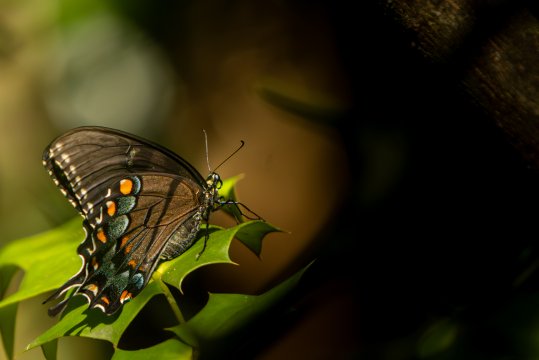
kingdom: Animalia
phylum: Arthropoda
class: Insecta
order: Lepidoptera
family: Papilionidae
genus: Pterourus
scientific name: Pterourus glaucus
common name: Eastern Tiger Swallowtail
